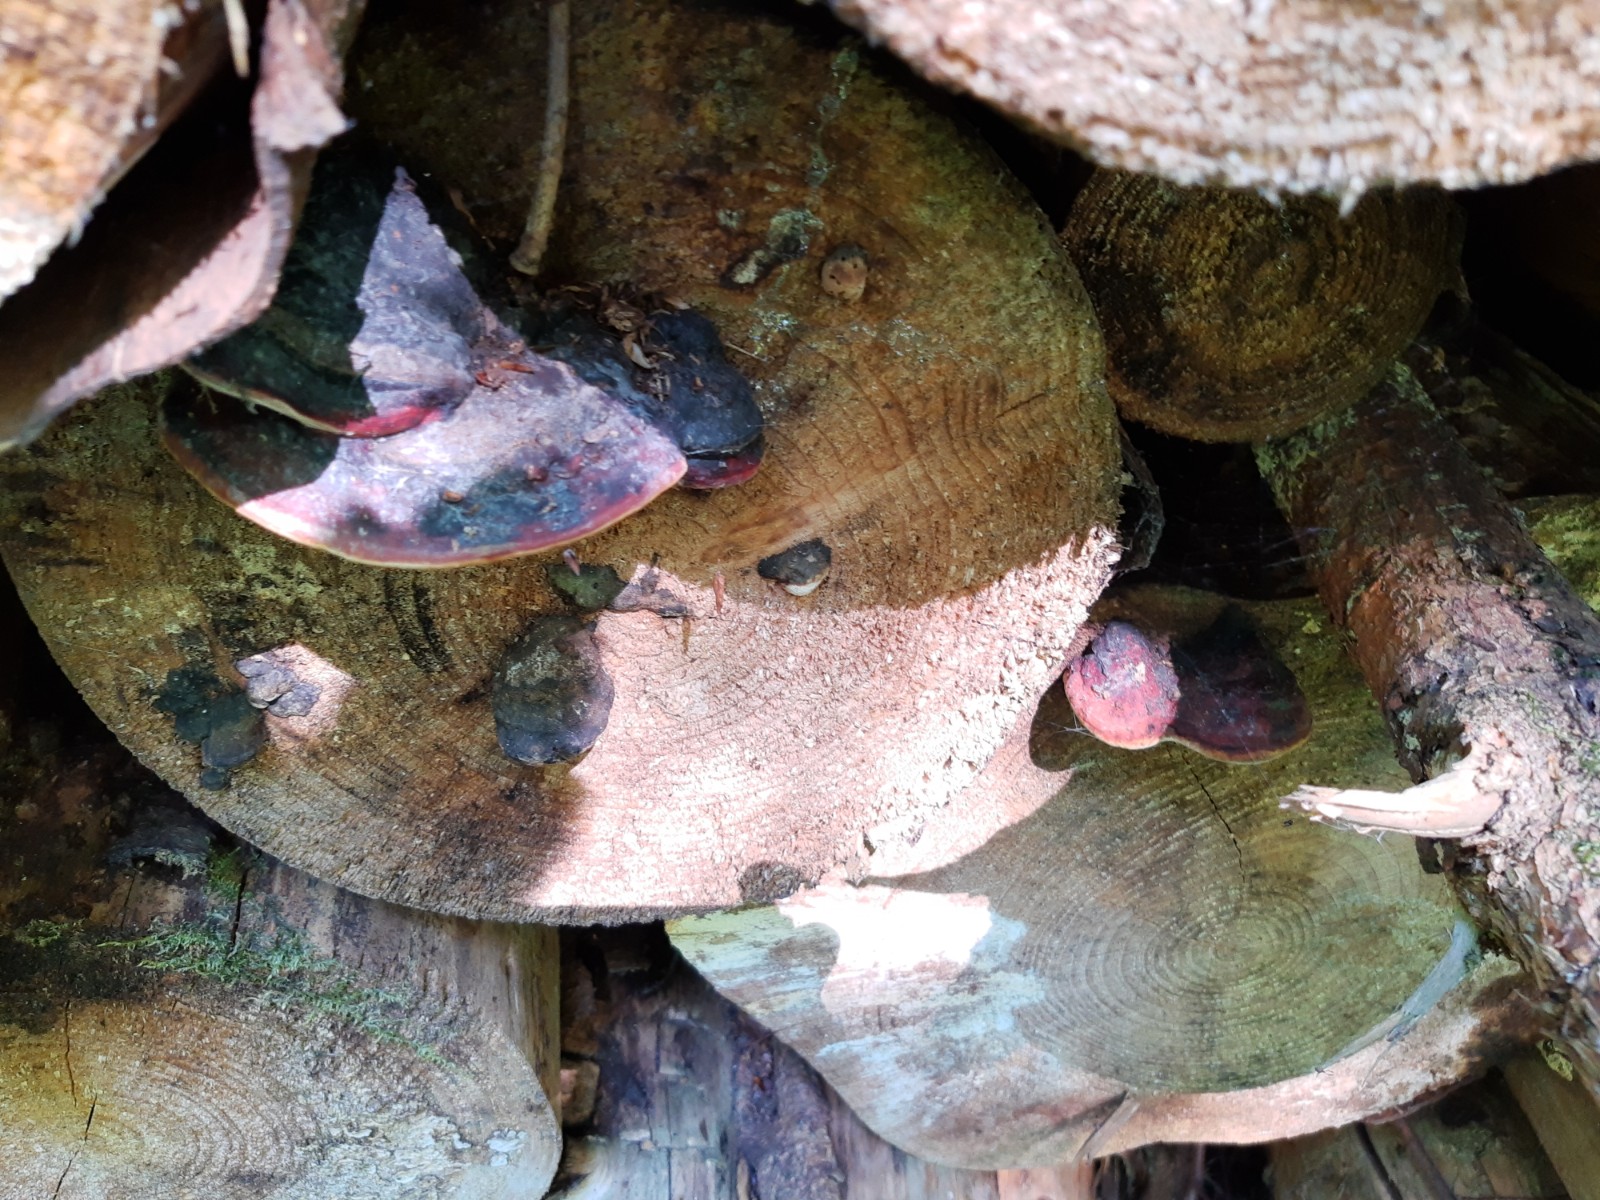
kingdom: Fungi
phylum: Basidiomycota
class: Agaricomycetes
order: Polyporales
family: Fomitopsidaceae
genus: Fomitopsis
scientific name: Fomitopsis pinicola
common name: randbæltet hovporesvamp
